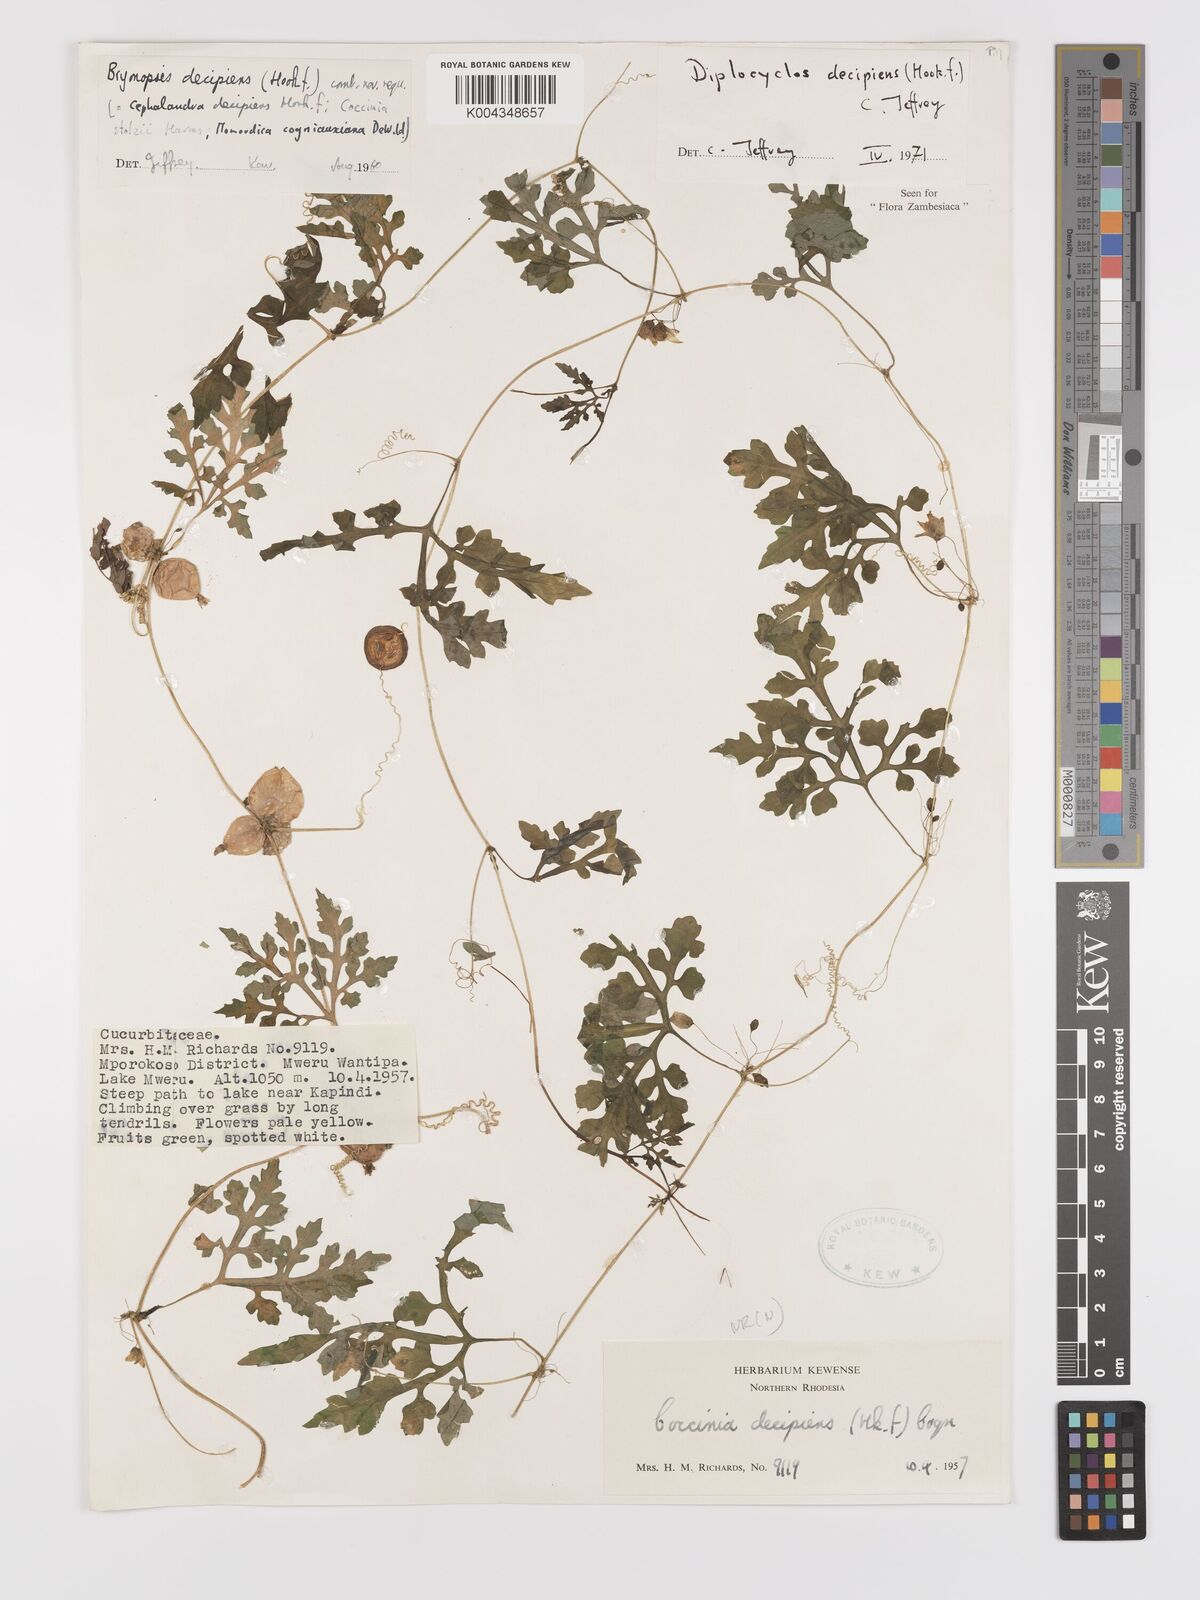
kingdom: Plantae
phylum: Tracheophyta
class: Magnoliopsida
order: Cucurbitales
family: Cucurbitaceae
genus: Diplocyclos
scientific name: Diplocyclos decipiens
